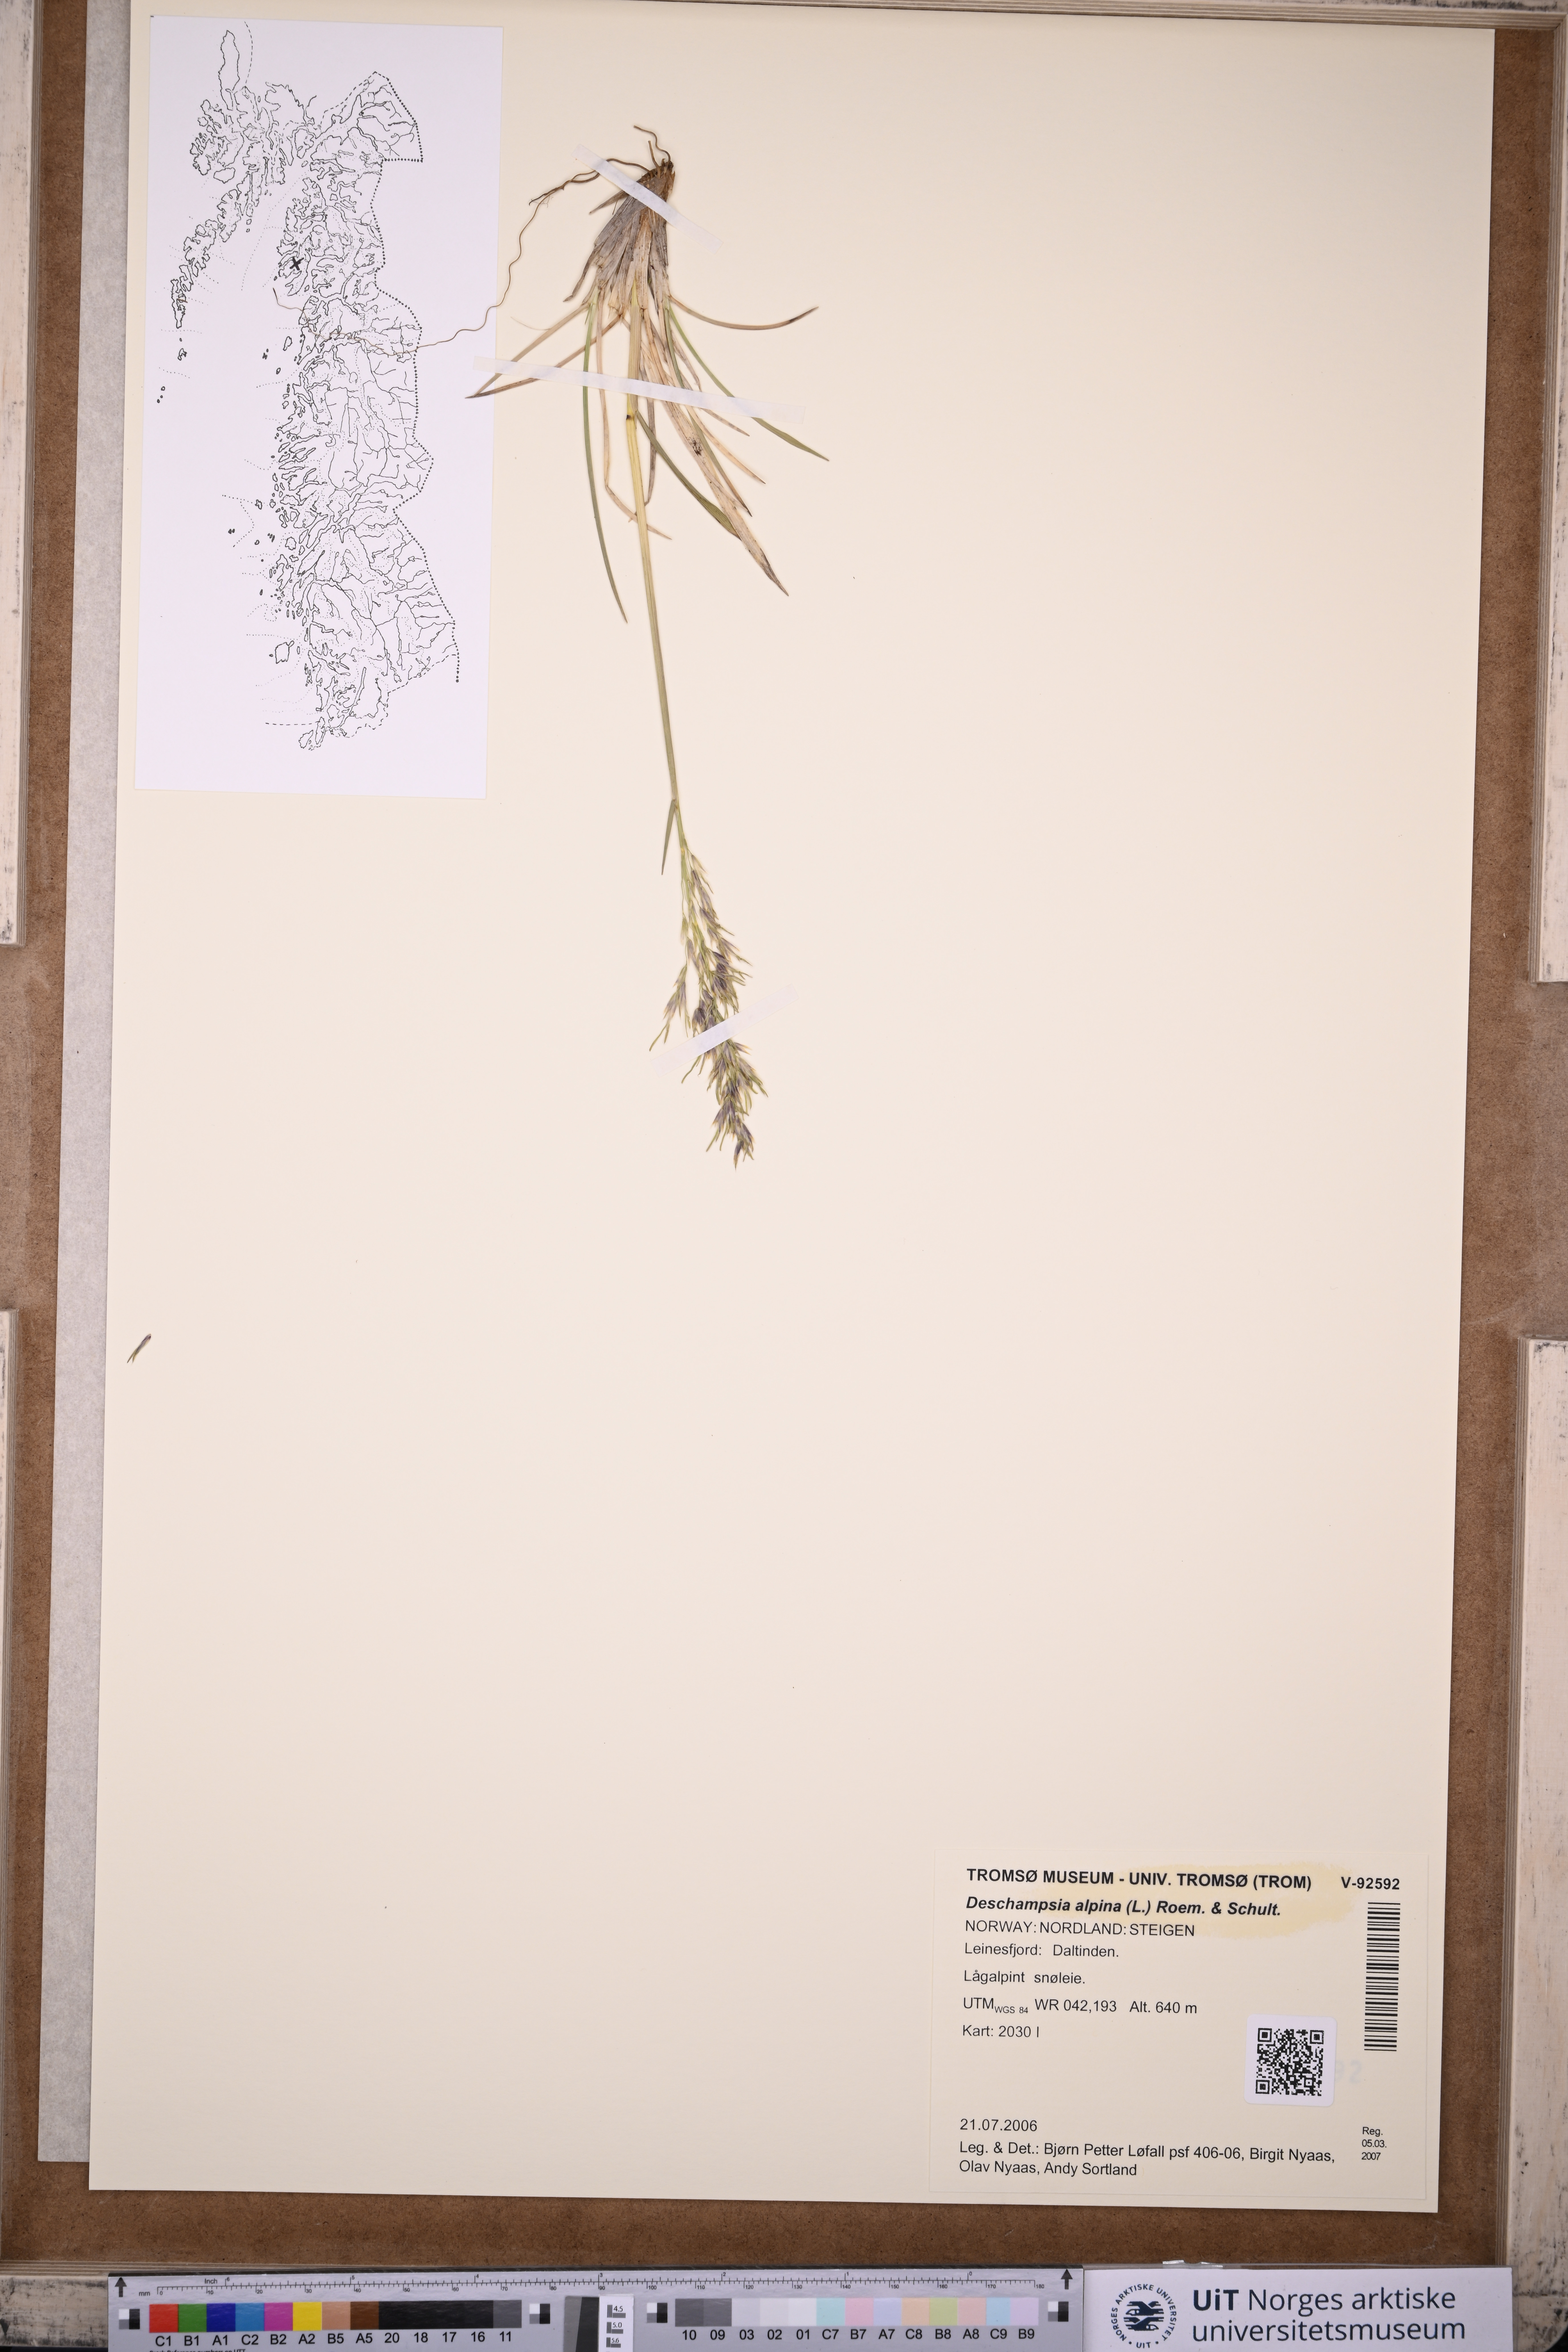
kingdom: Plantae
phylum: Tracheophyta
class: Liliopsida
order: Poales
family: Poaceae
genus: Deschampsia
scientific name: Deschampsia cespitosa
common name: Tufted hair-grass
